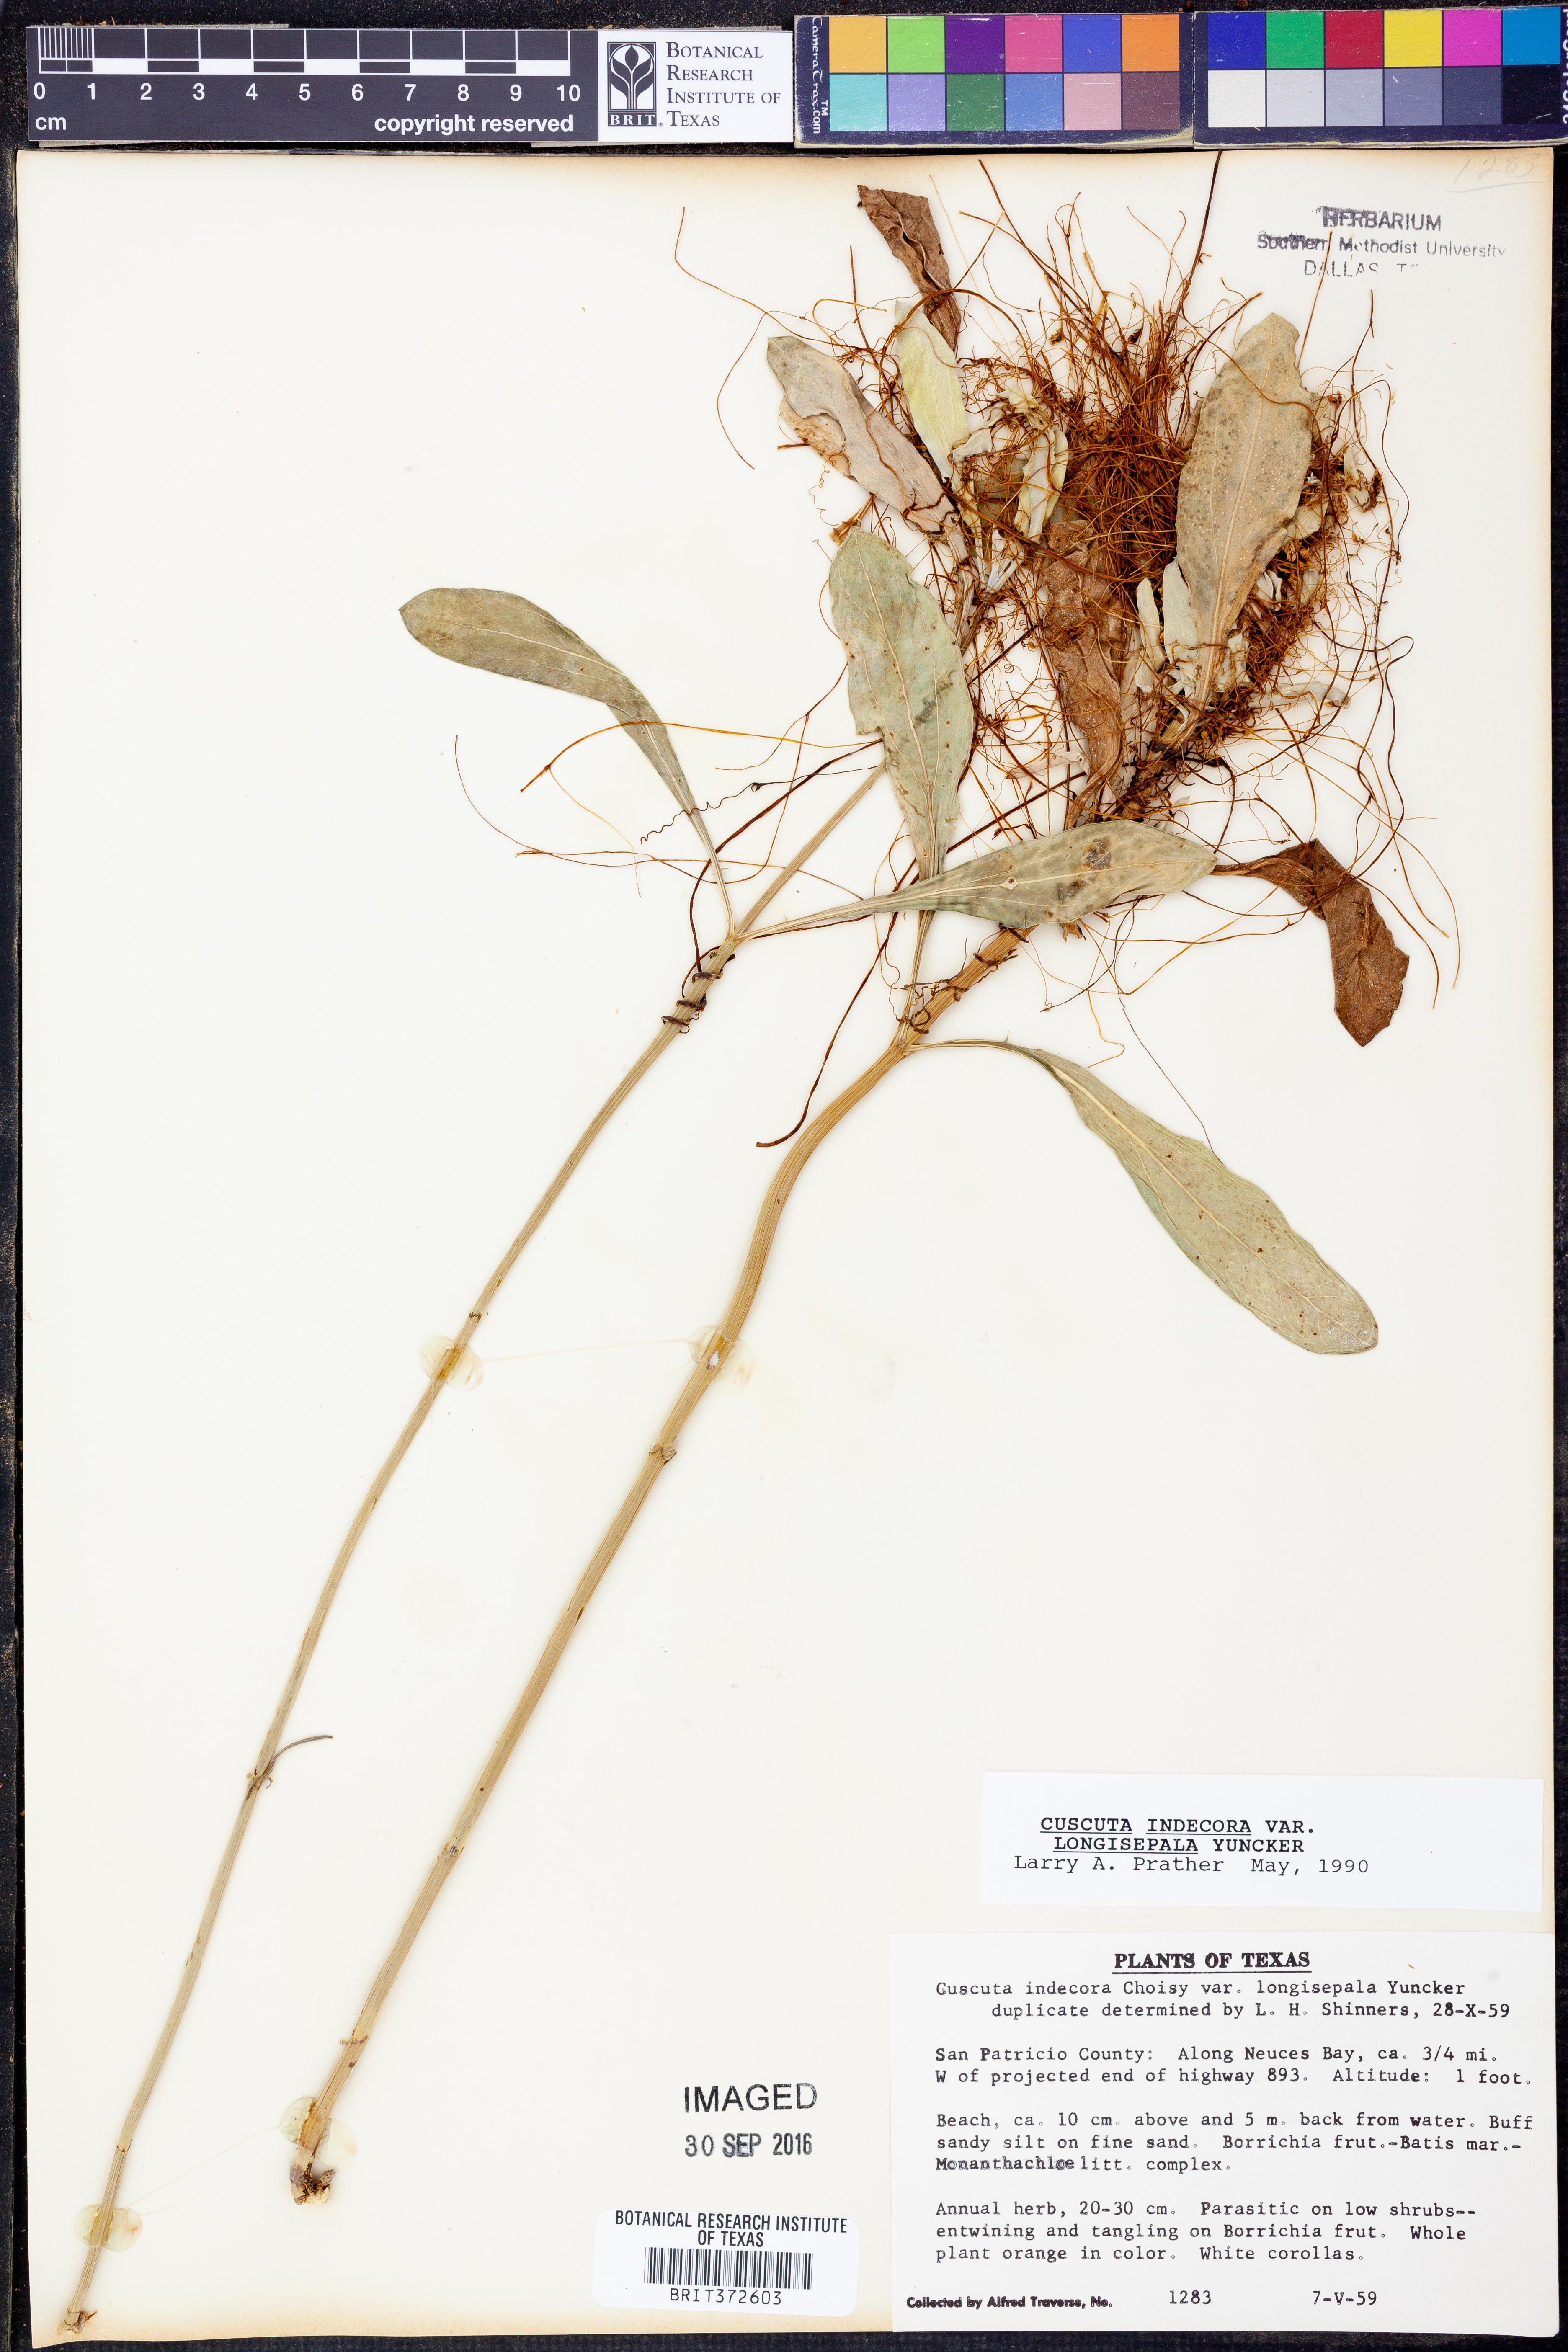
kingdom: Plantae
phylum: Tracheophyta
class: Magnoliopsida
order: Solanales
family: Convolvulaceae
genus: Cuscuta
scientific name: Cuscuta indecora
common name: Large-seed dodder
